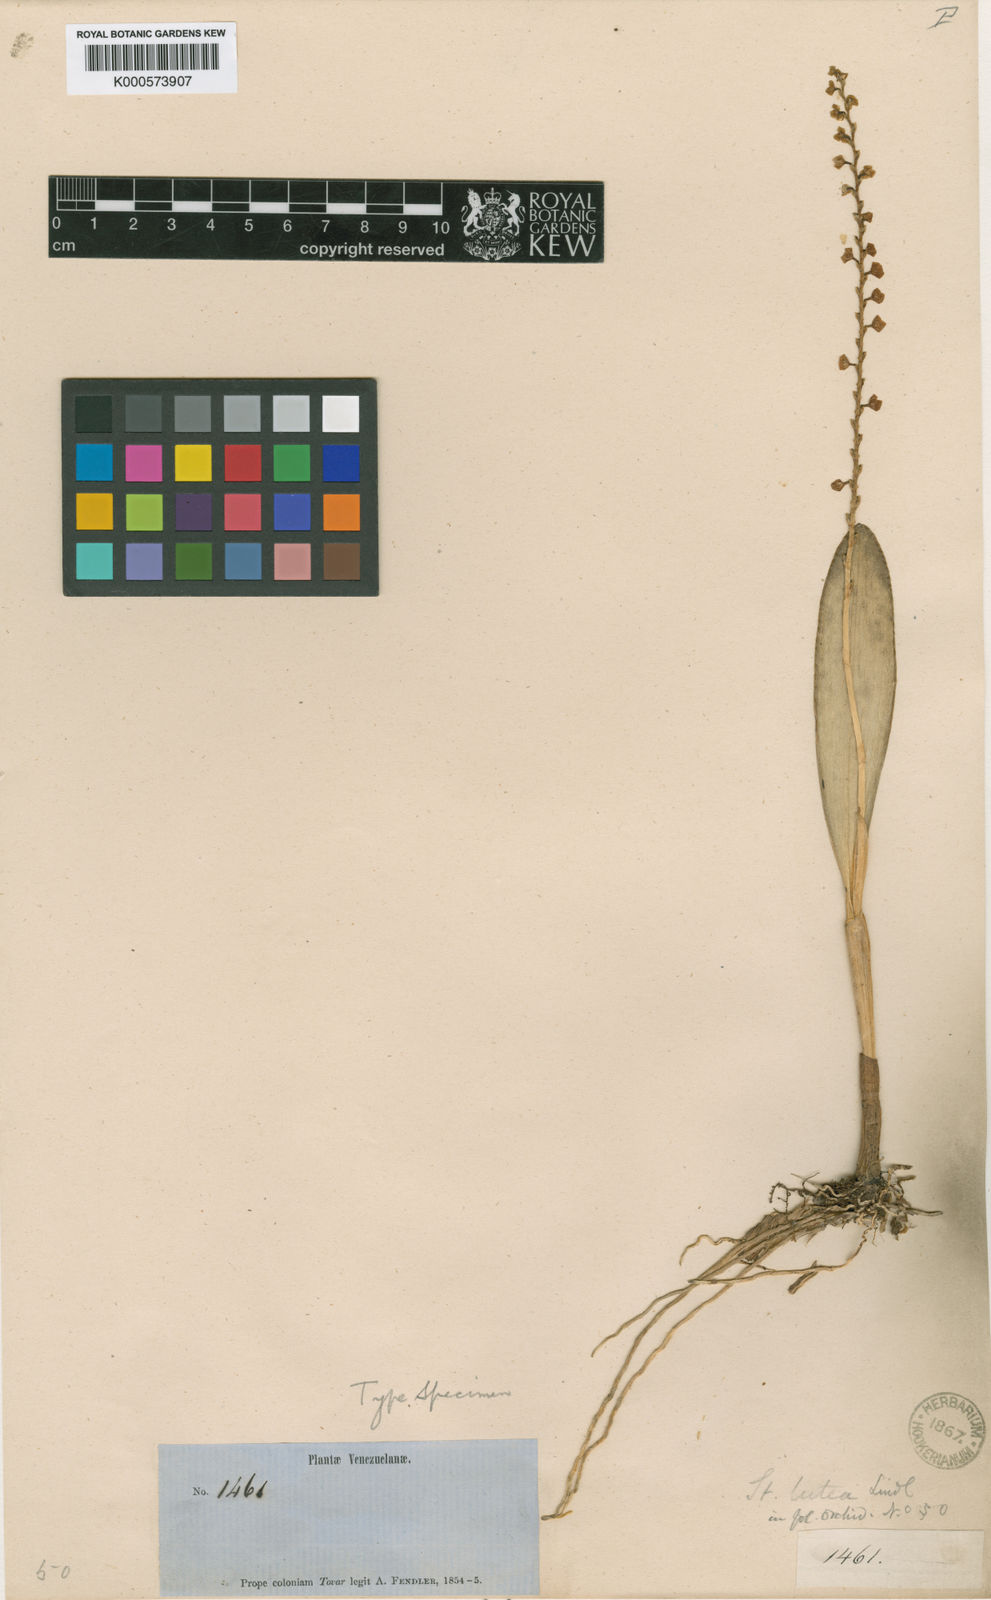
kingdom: Plantae
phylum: Tracheophyta
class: Liliopsida
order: Asparagales
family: Orchidaceae
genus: Stelis
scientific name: Stelis lutea
